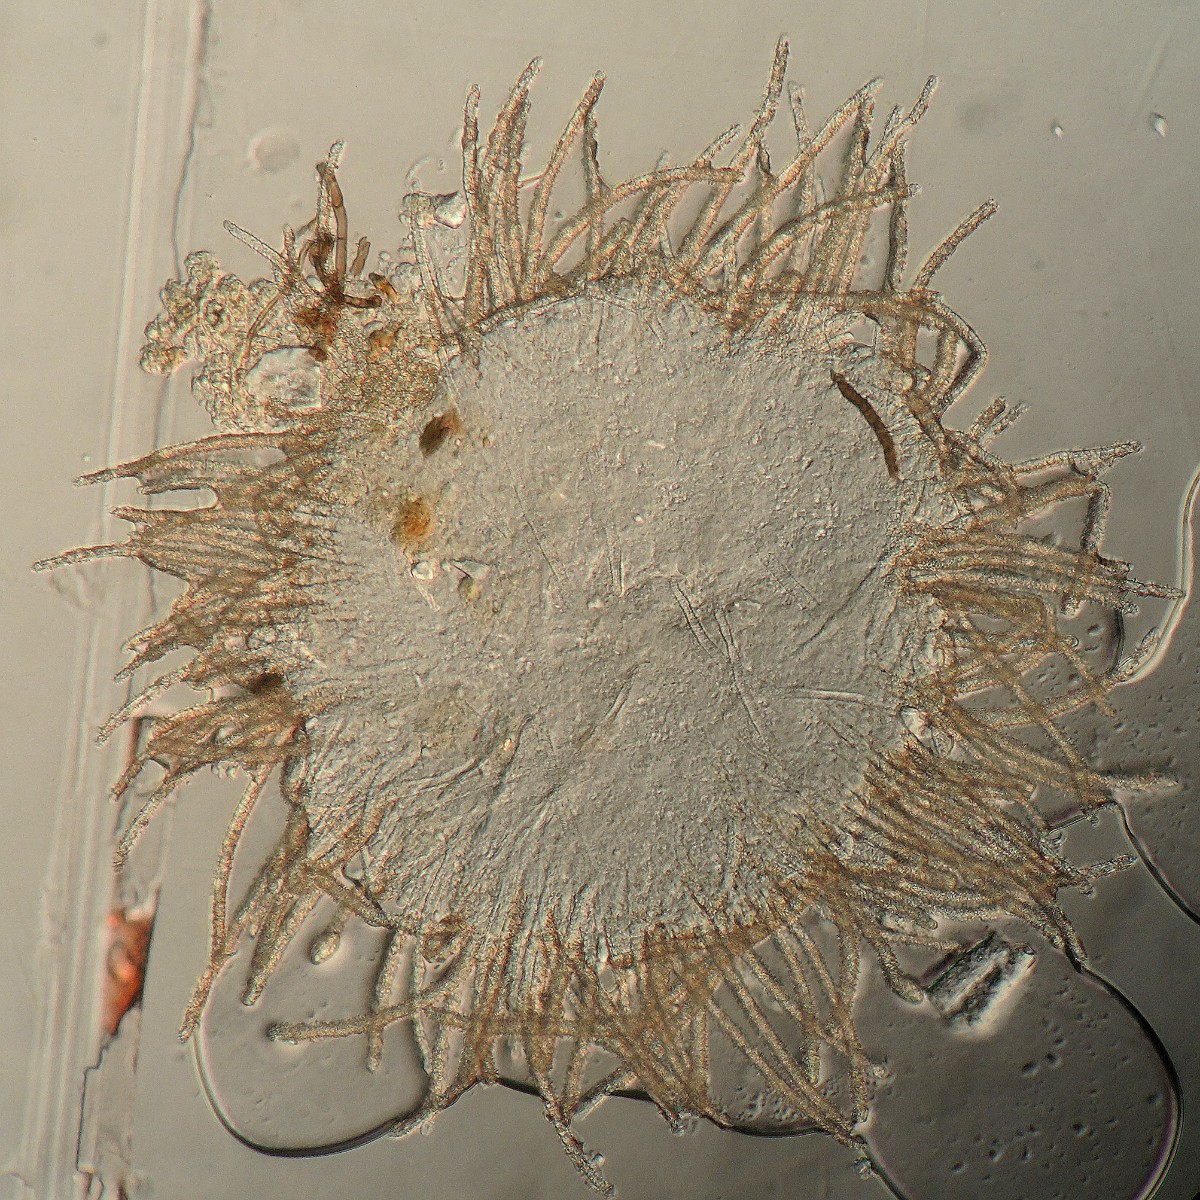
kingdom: Fungi
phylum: Basidiomycota
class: Agaricomycetes
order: Agaricales
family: Tricholomataceae
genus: Pseudolasiobolus
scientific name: Pseudolasiobolus minutissimus
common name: plejadeskål
